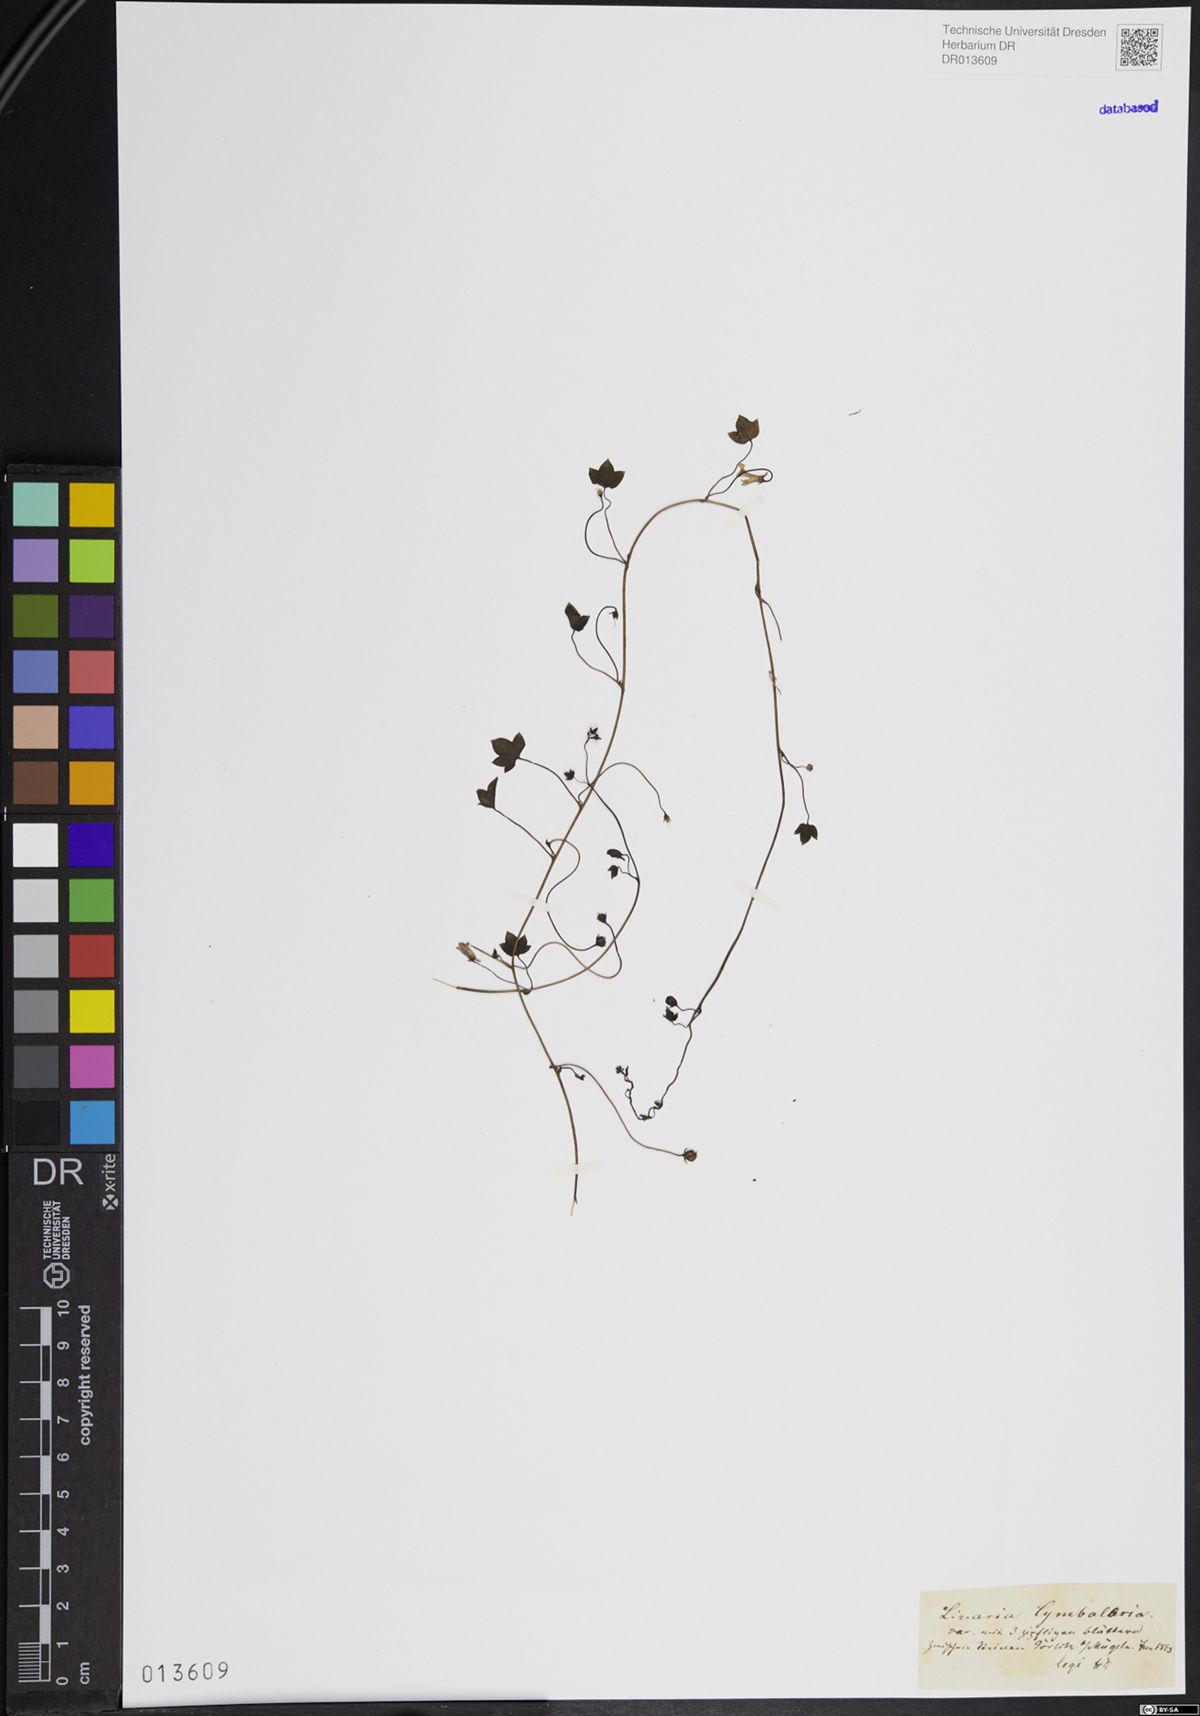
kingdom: Plantae
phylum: Tracheophyta
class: Magnoliopsida
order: Lamiales
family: Plantaginaceae
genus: Cymbalaria
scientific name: Cymbalaria muralis
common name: Ivy-leaved toadflax
